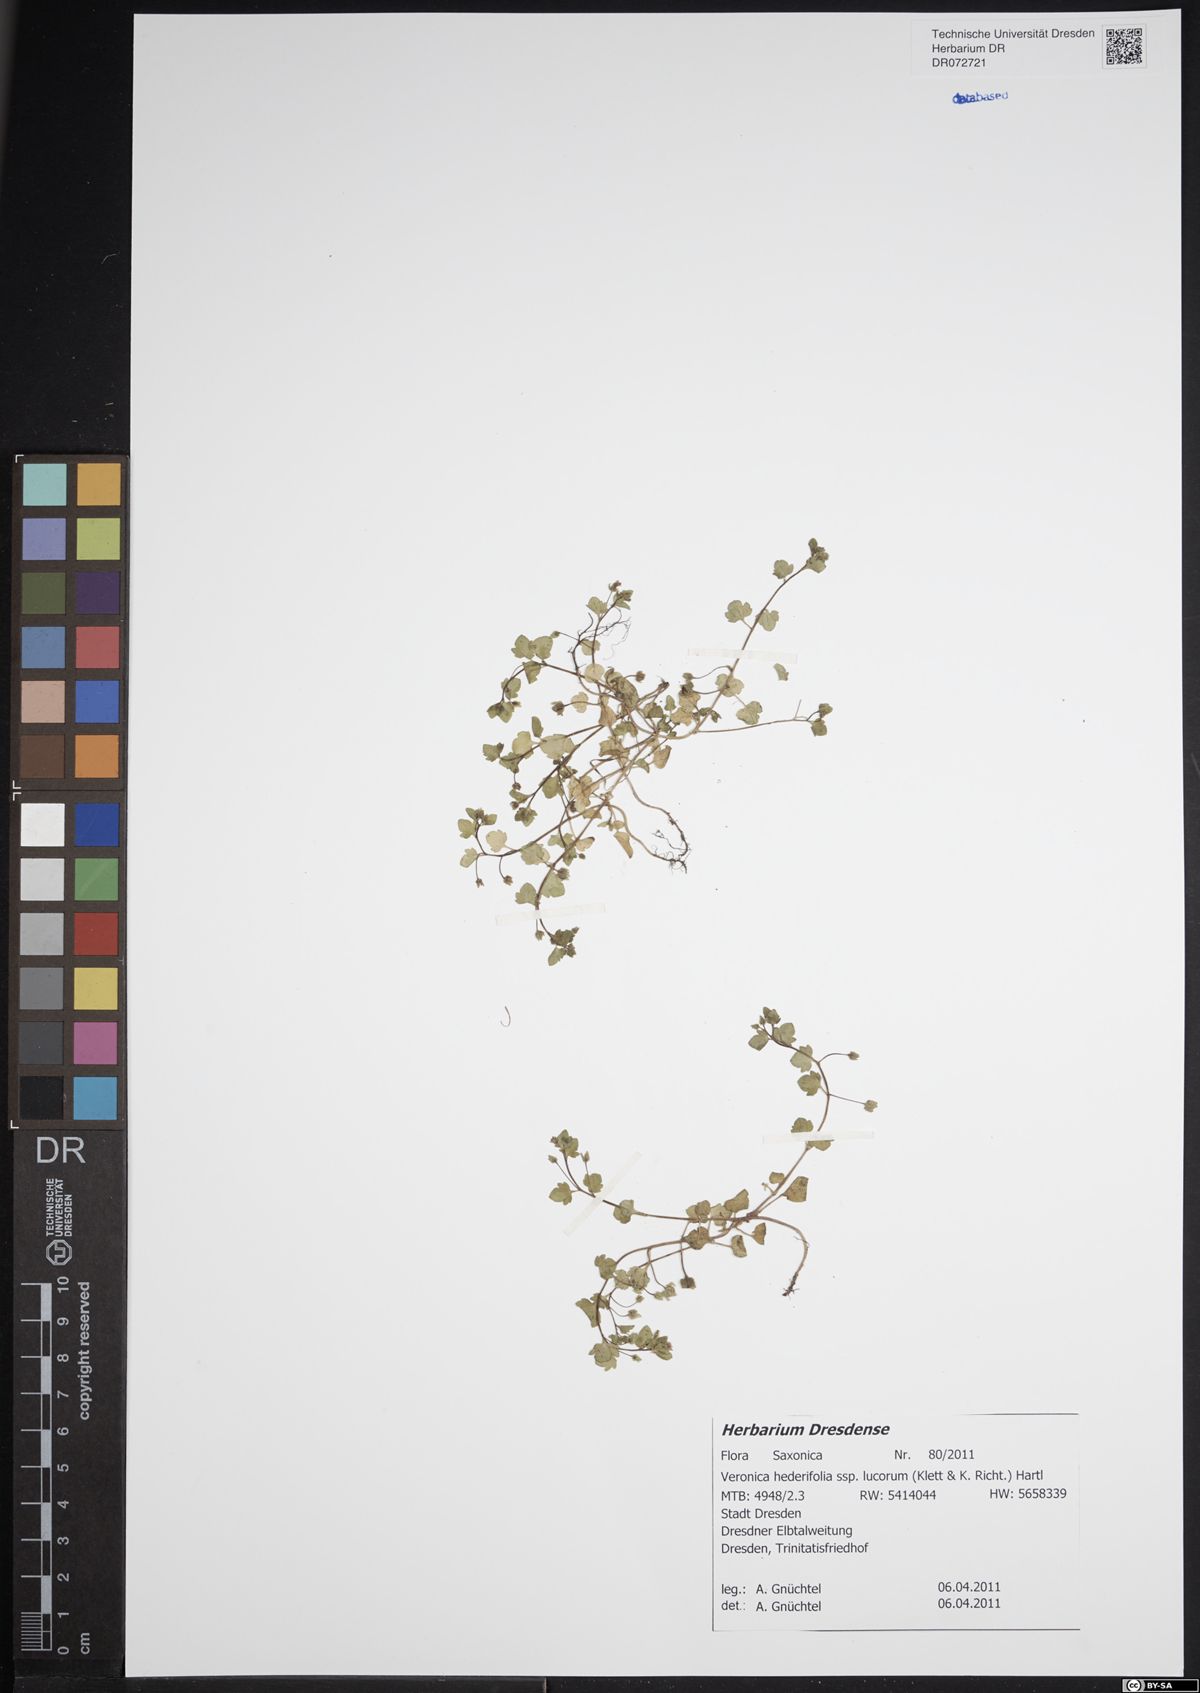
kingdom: Plantae
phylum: Tracheophyta
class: Magnoliopsida
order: Lamiales
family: Plantaginaceae
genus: Veronica
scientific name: Veronica hederifolia
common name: Ivy-leaved speedwell
